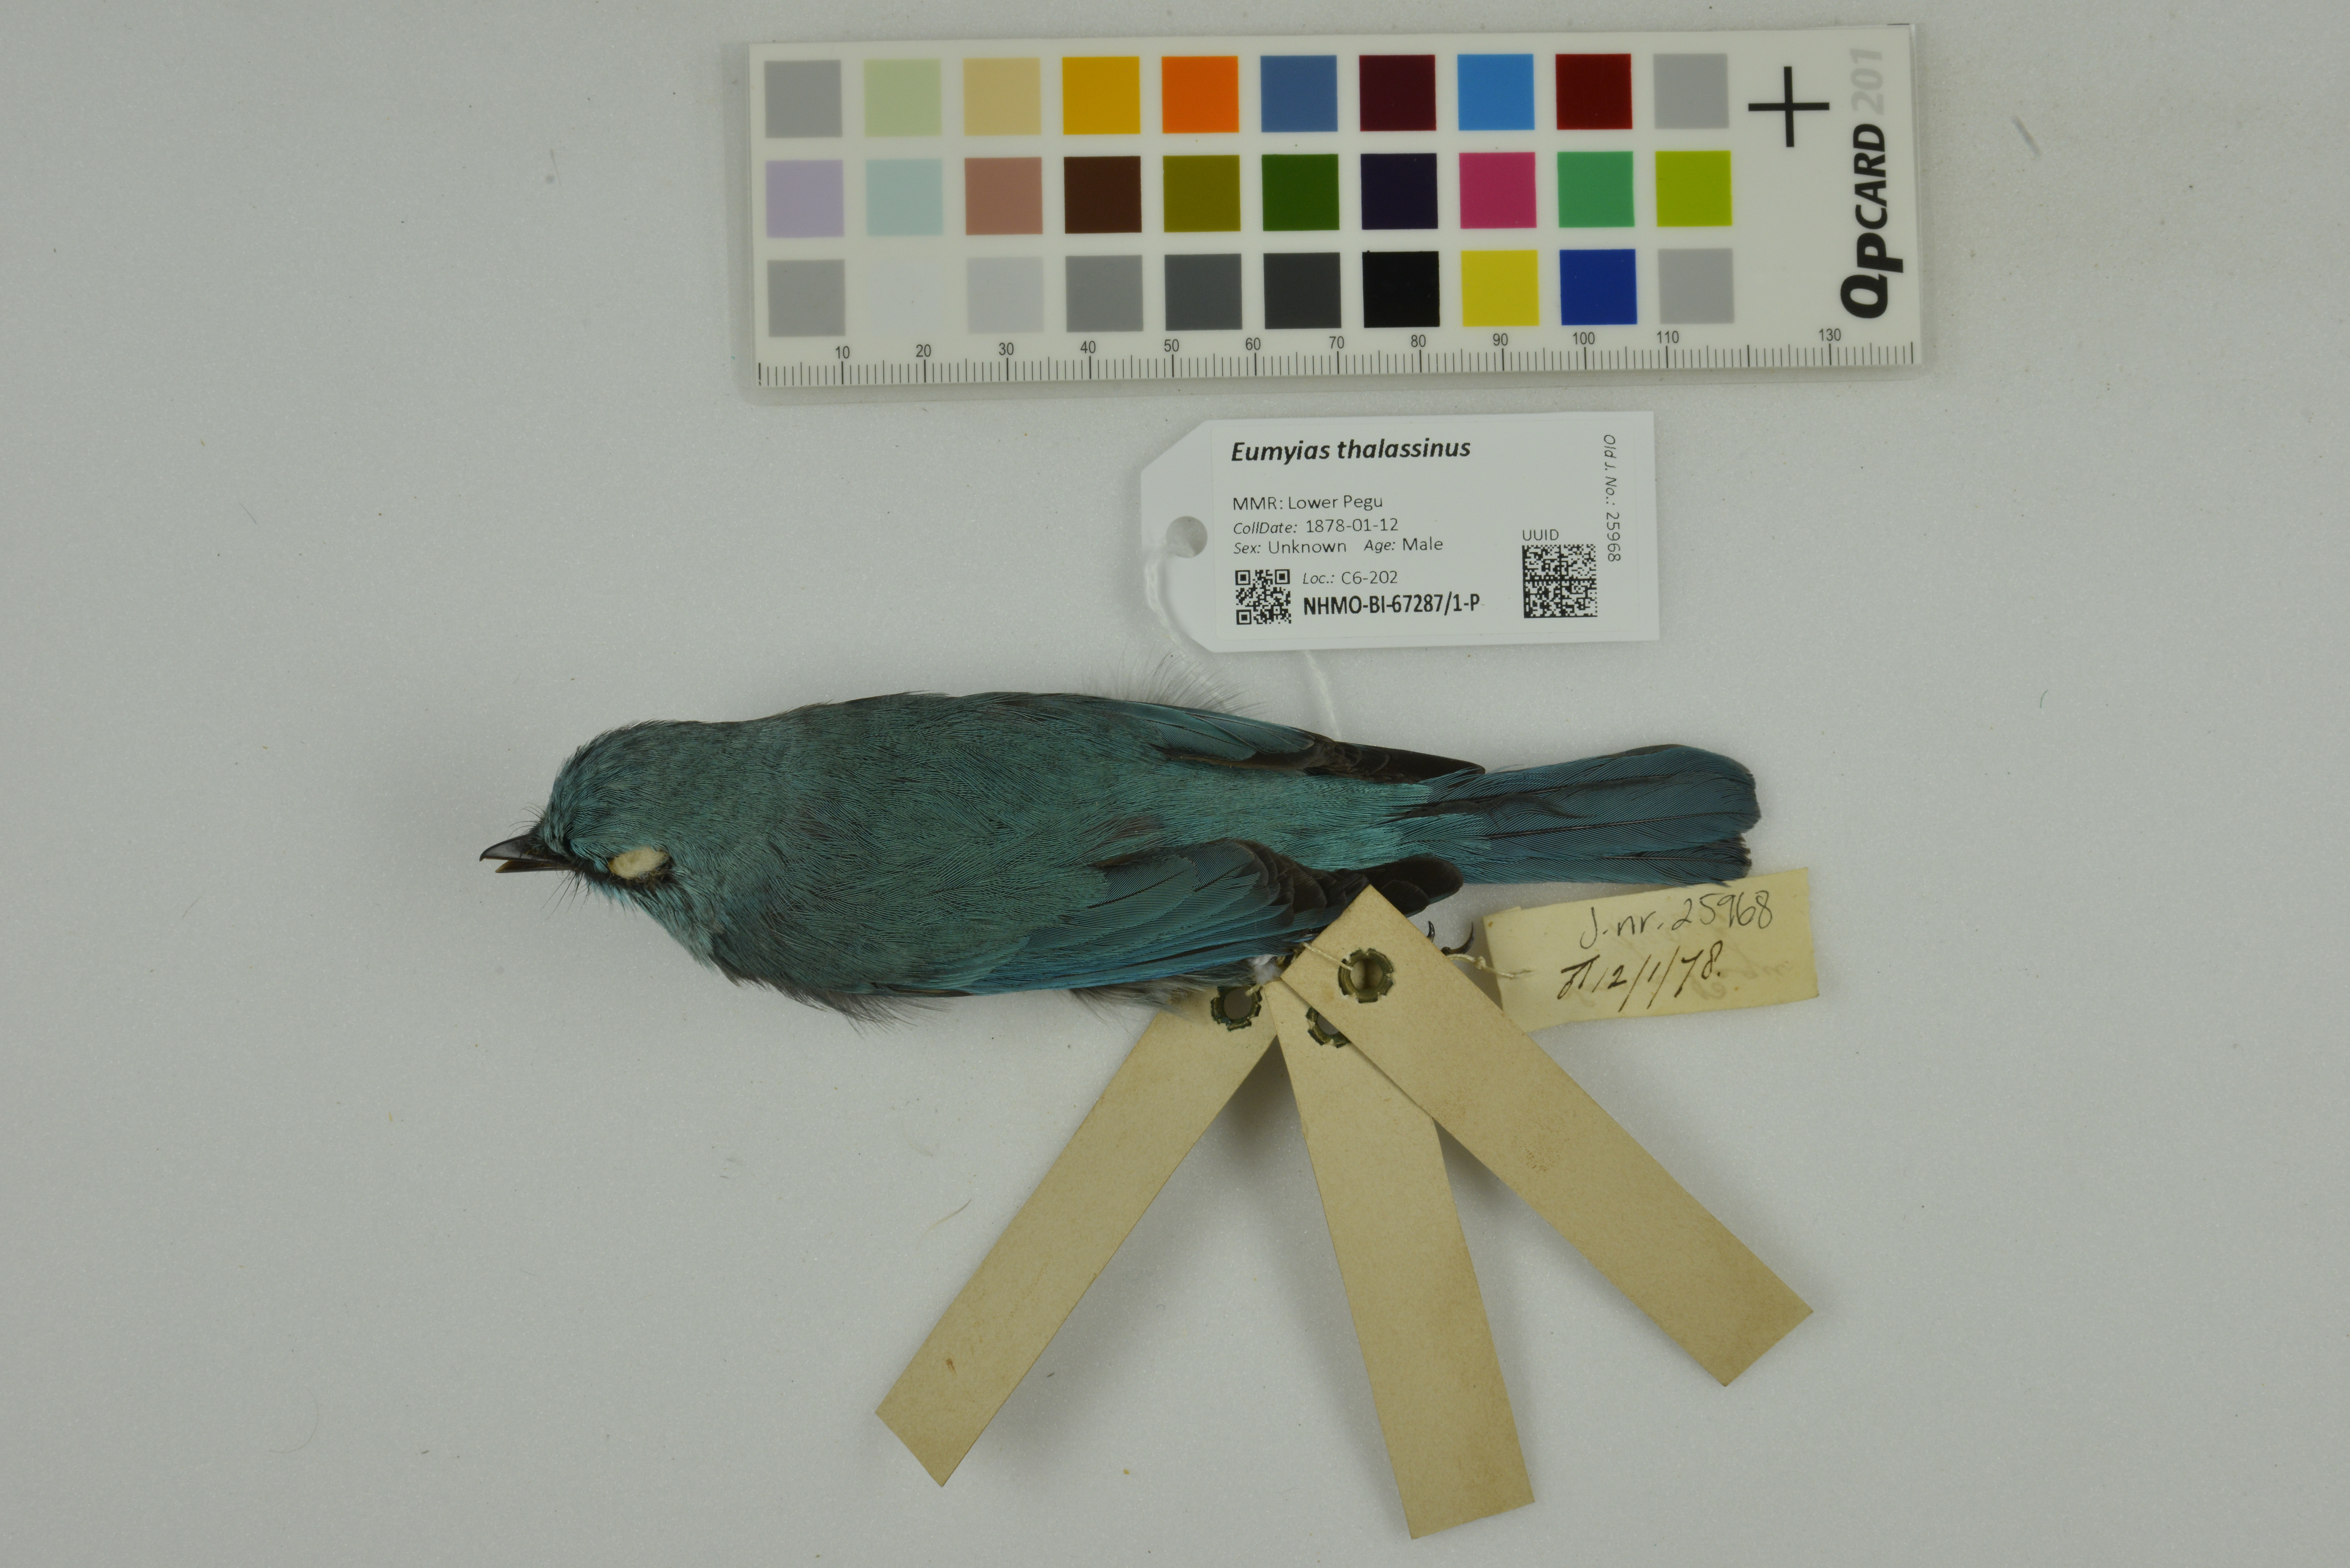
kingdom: Animalia
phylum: Chordata
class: Aves
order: Passeriformes
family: Muscicapidae
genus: Eumyias
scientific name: Eumyias thalassinus
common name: Verditer flycatcher
